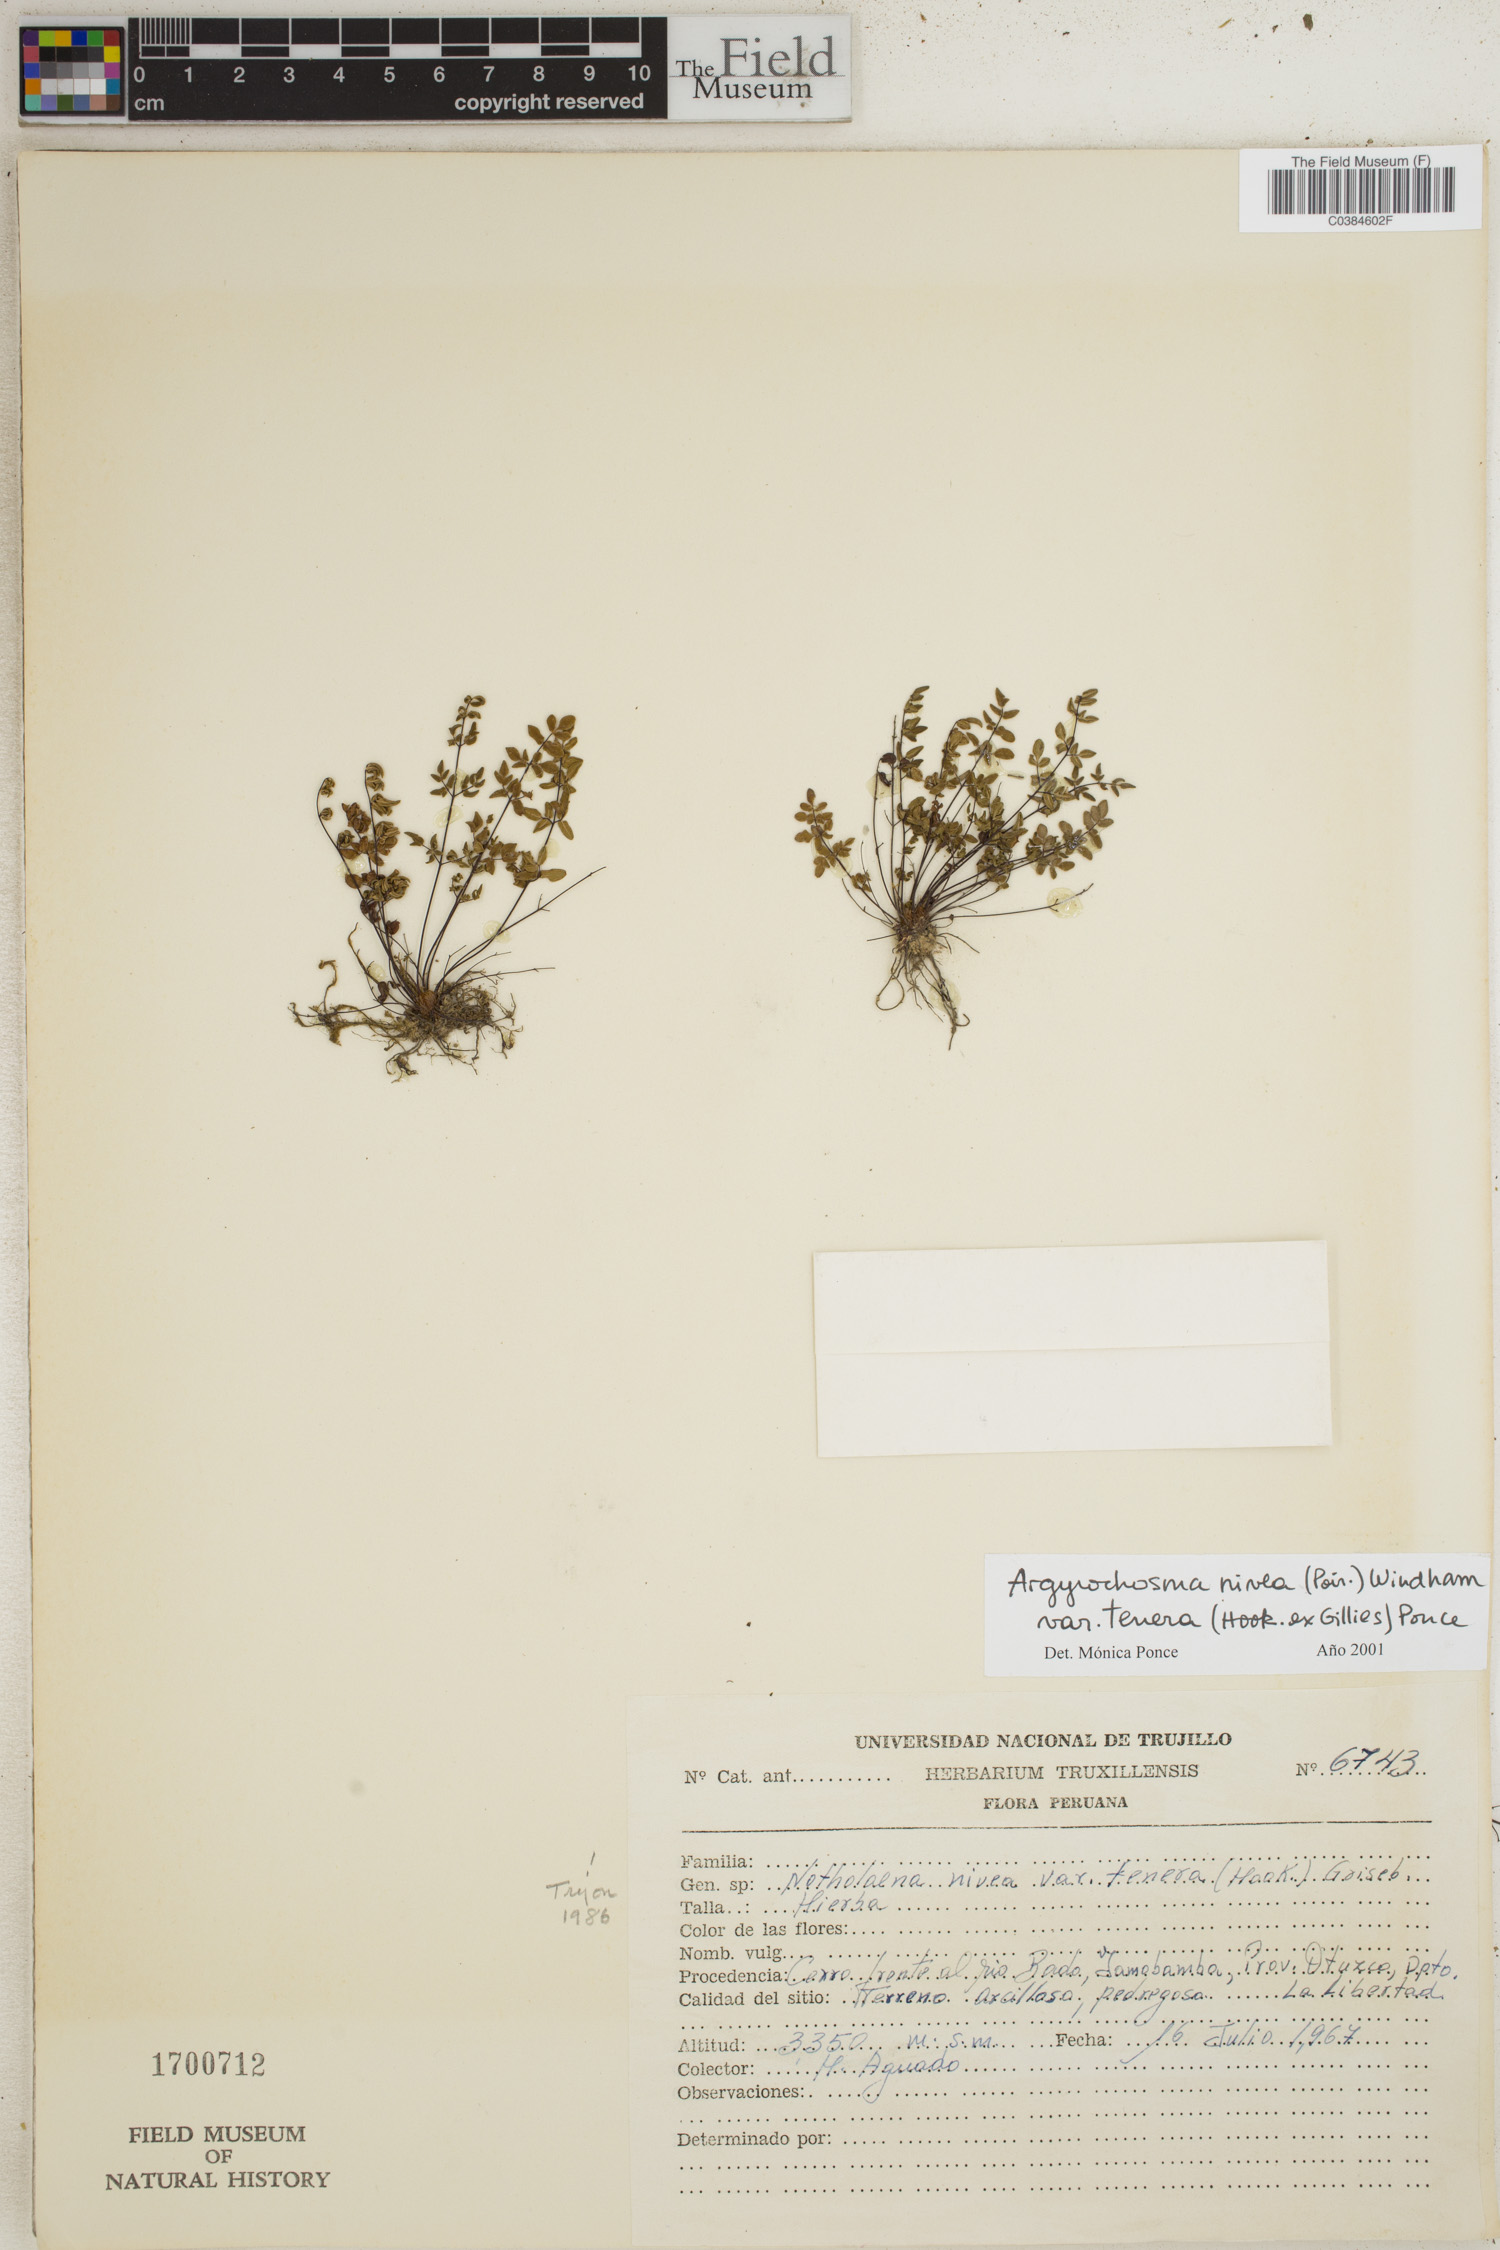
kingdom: Plantae
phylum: Tracheophyta
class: Polypodiopsida
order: Polypodiales
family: Pteridaceae
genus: Argyrochosma
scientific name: Argyrochosma nivea
